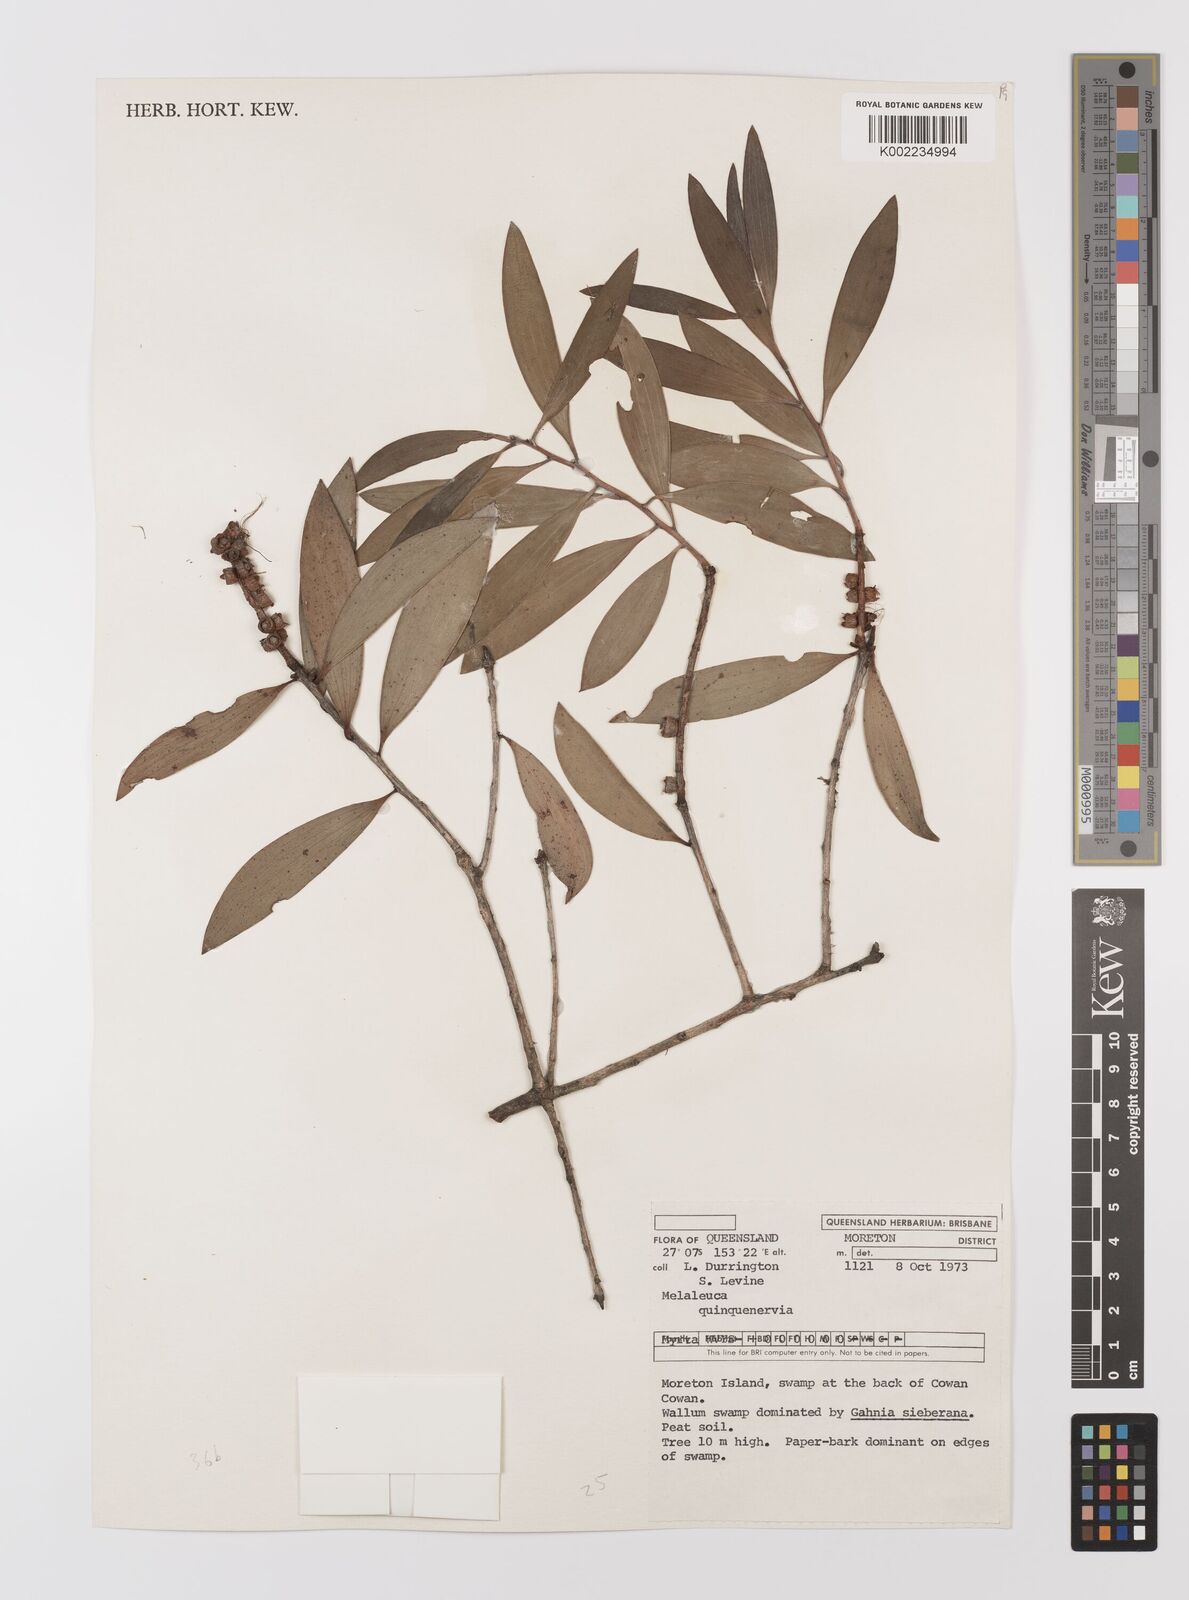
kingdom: Plantae
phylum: Tracheophyta
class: Magnoliopsida
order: Myrtales
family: Myrtaceae
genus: Melaleuca
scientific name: Melaleuca quinquenervia
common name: Punktree
